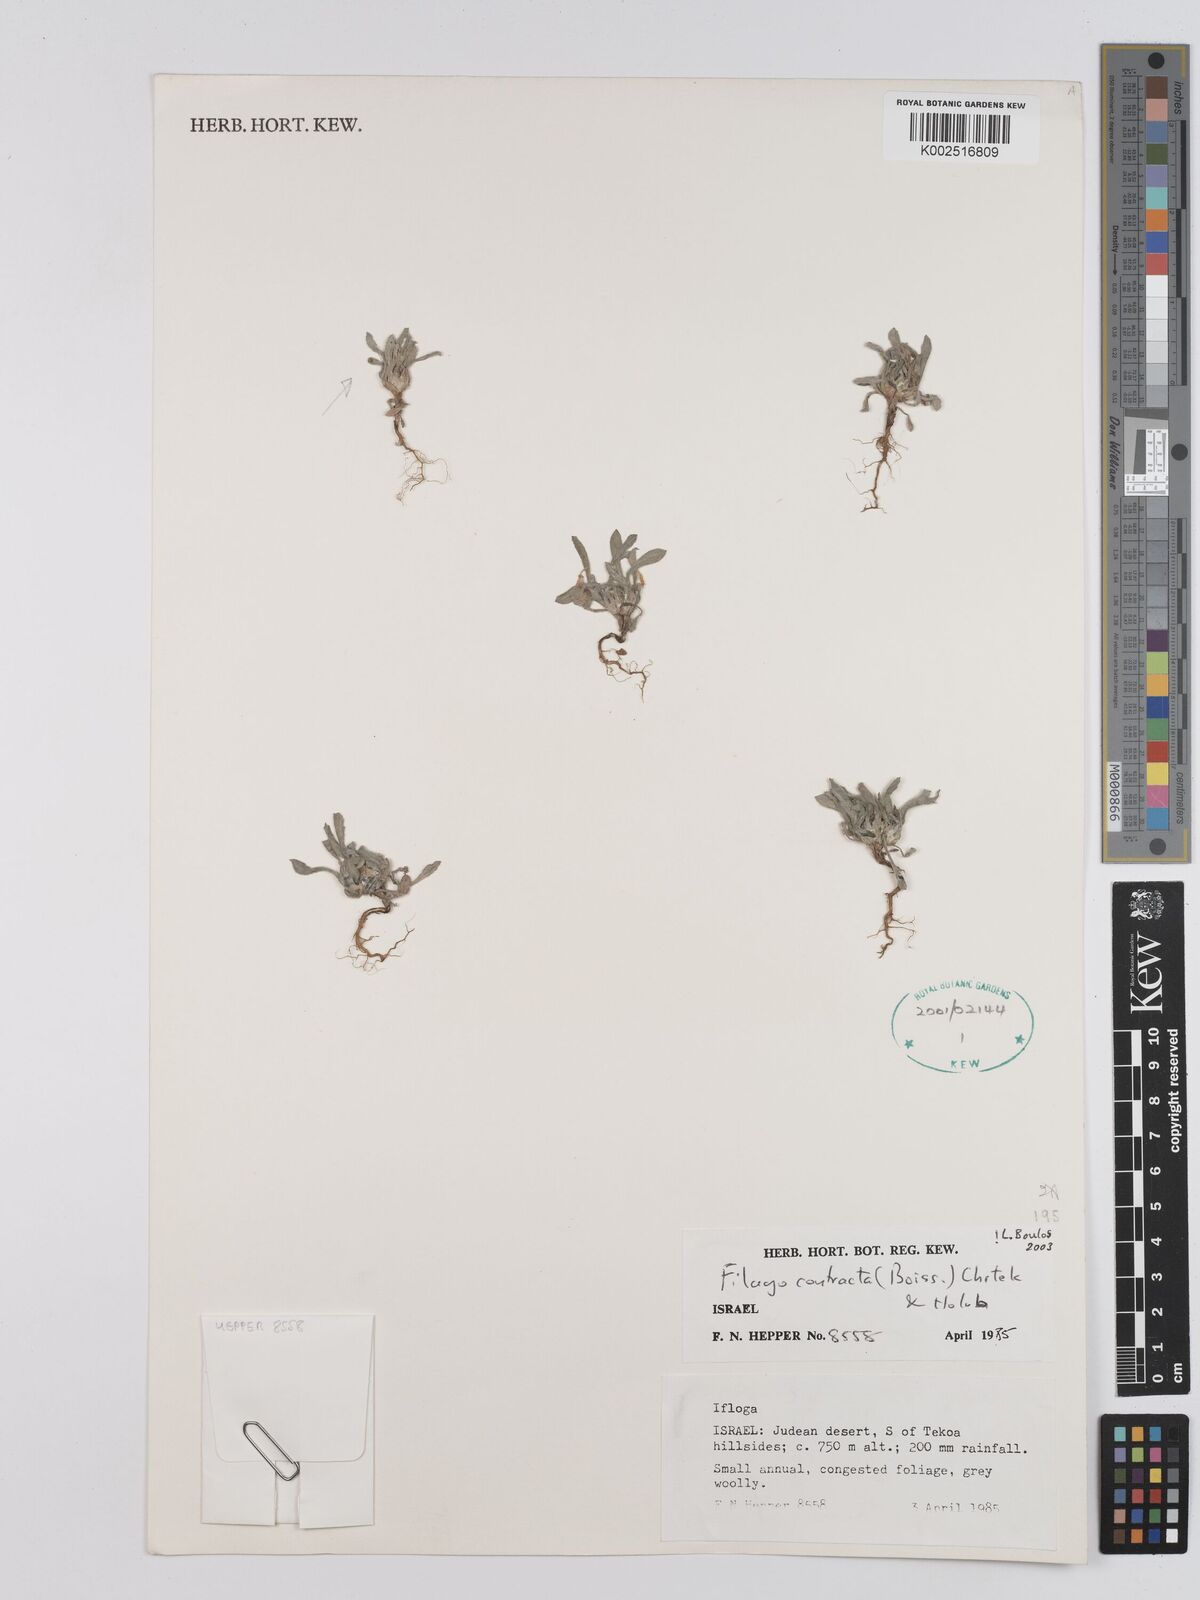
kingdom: Plantae
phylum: Tracheophyta
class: Magnoliopsida
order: Asterales
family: Asteraceae
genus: Filago
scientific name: Filago contracta
